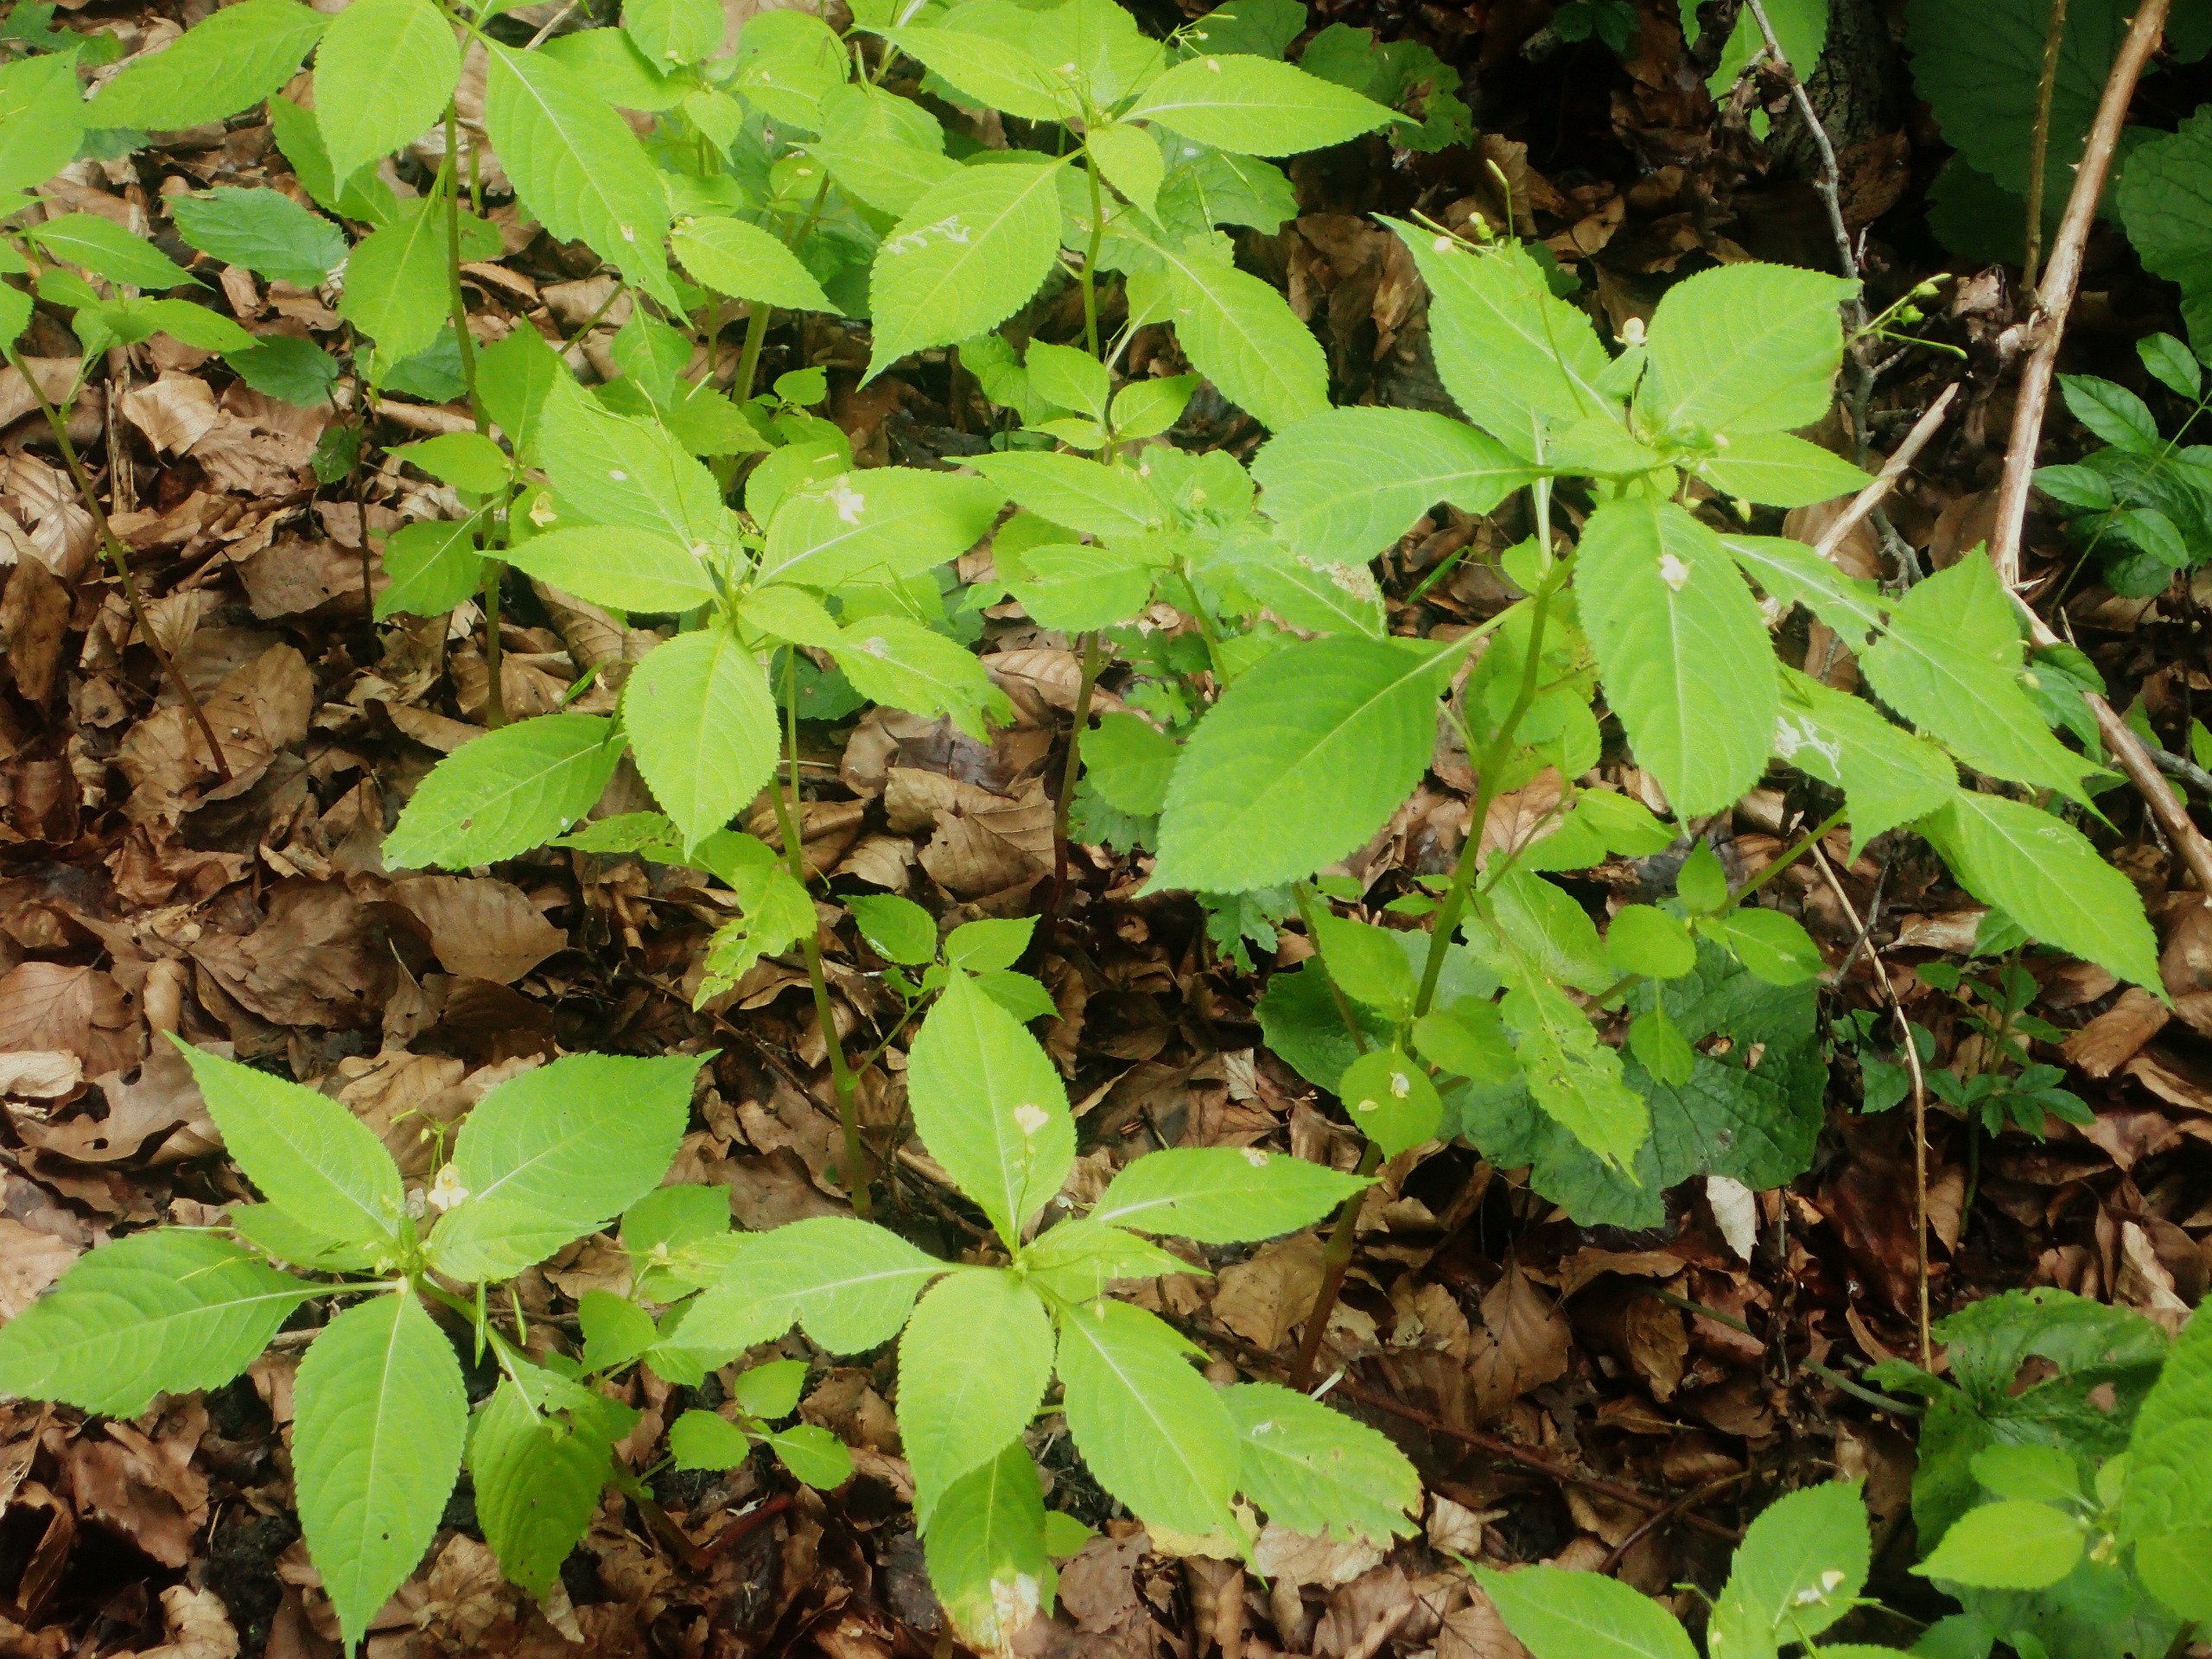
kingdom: Plantae
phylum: Tracheophyta
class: Magnoliopsida
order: Ericales
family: Balsaminaceae
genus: Impatiens
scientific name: Impatiens parviflora
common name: Småblomstret balsamin
